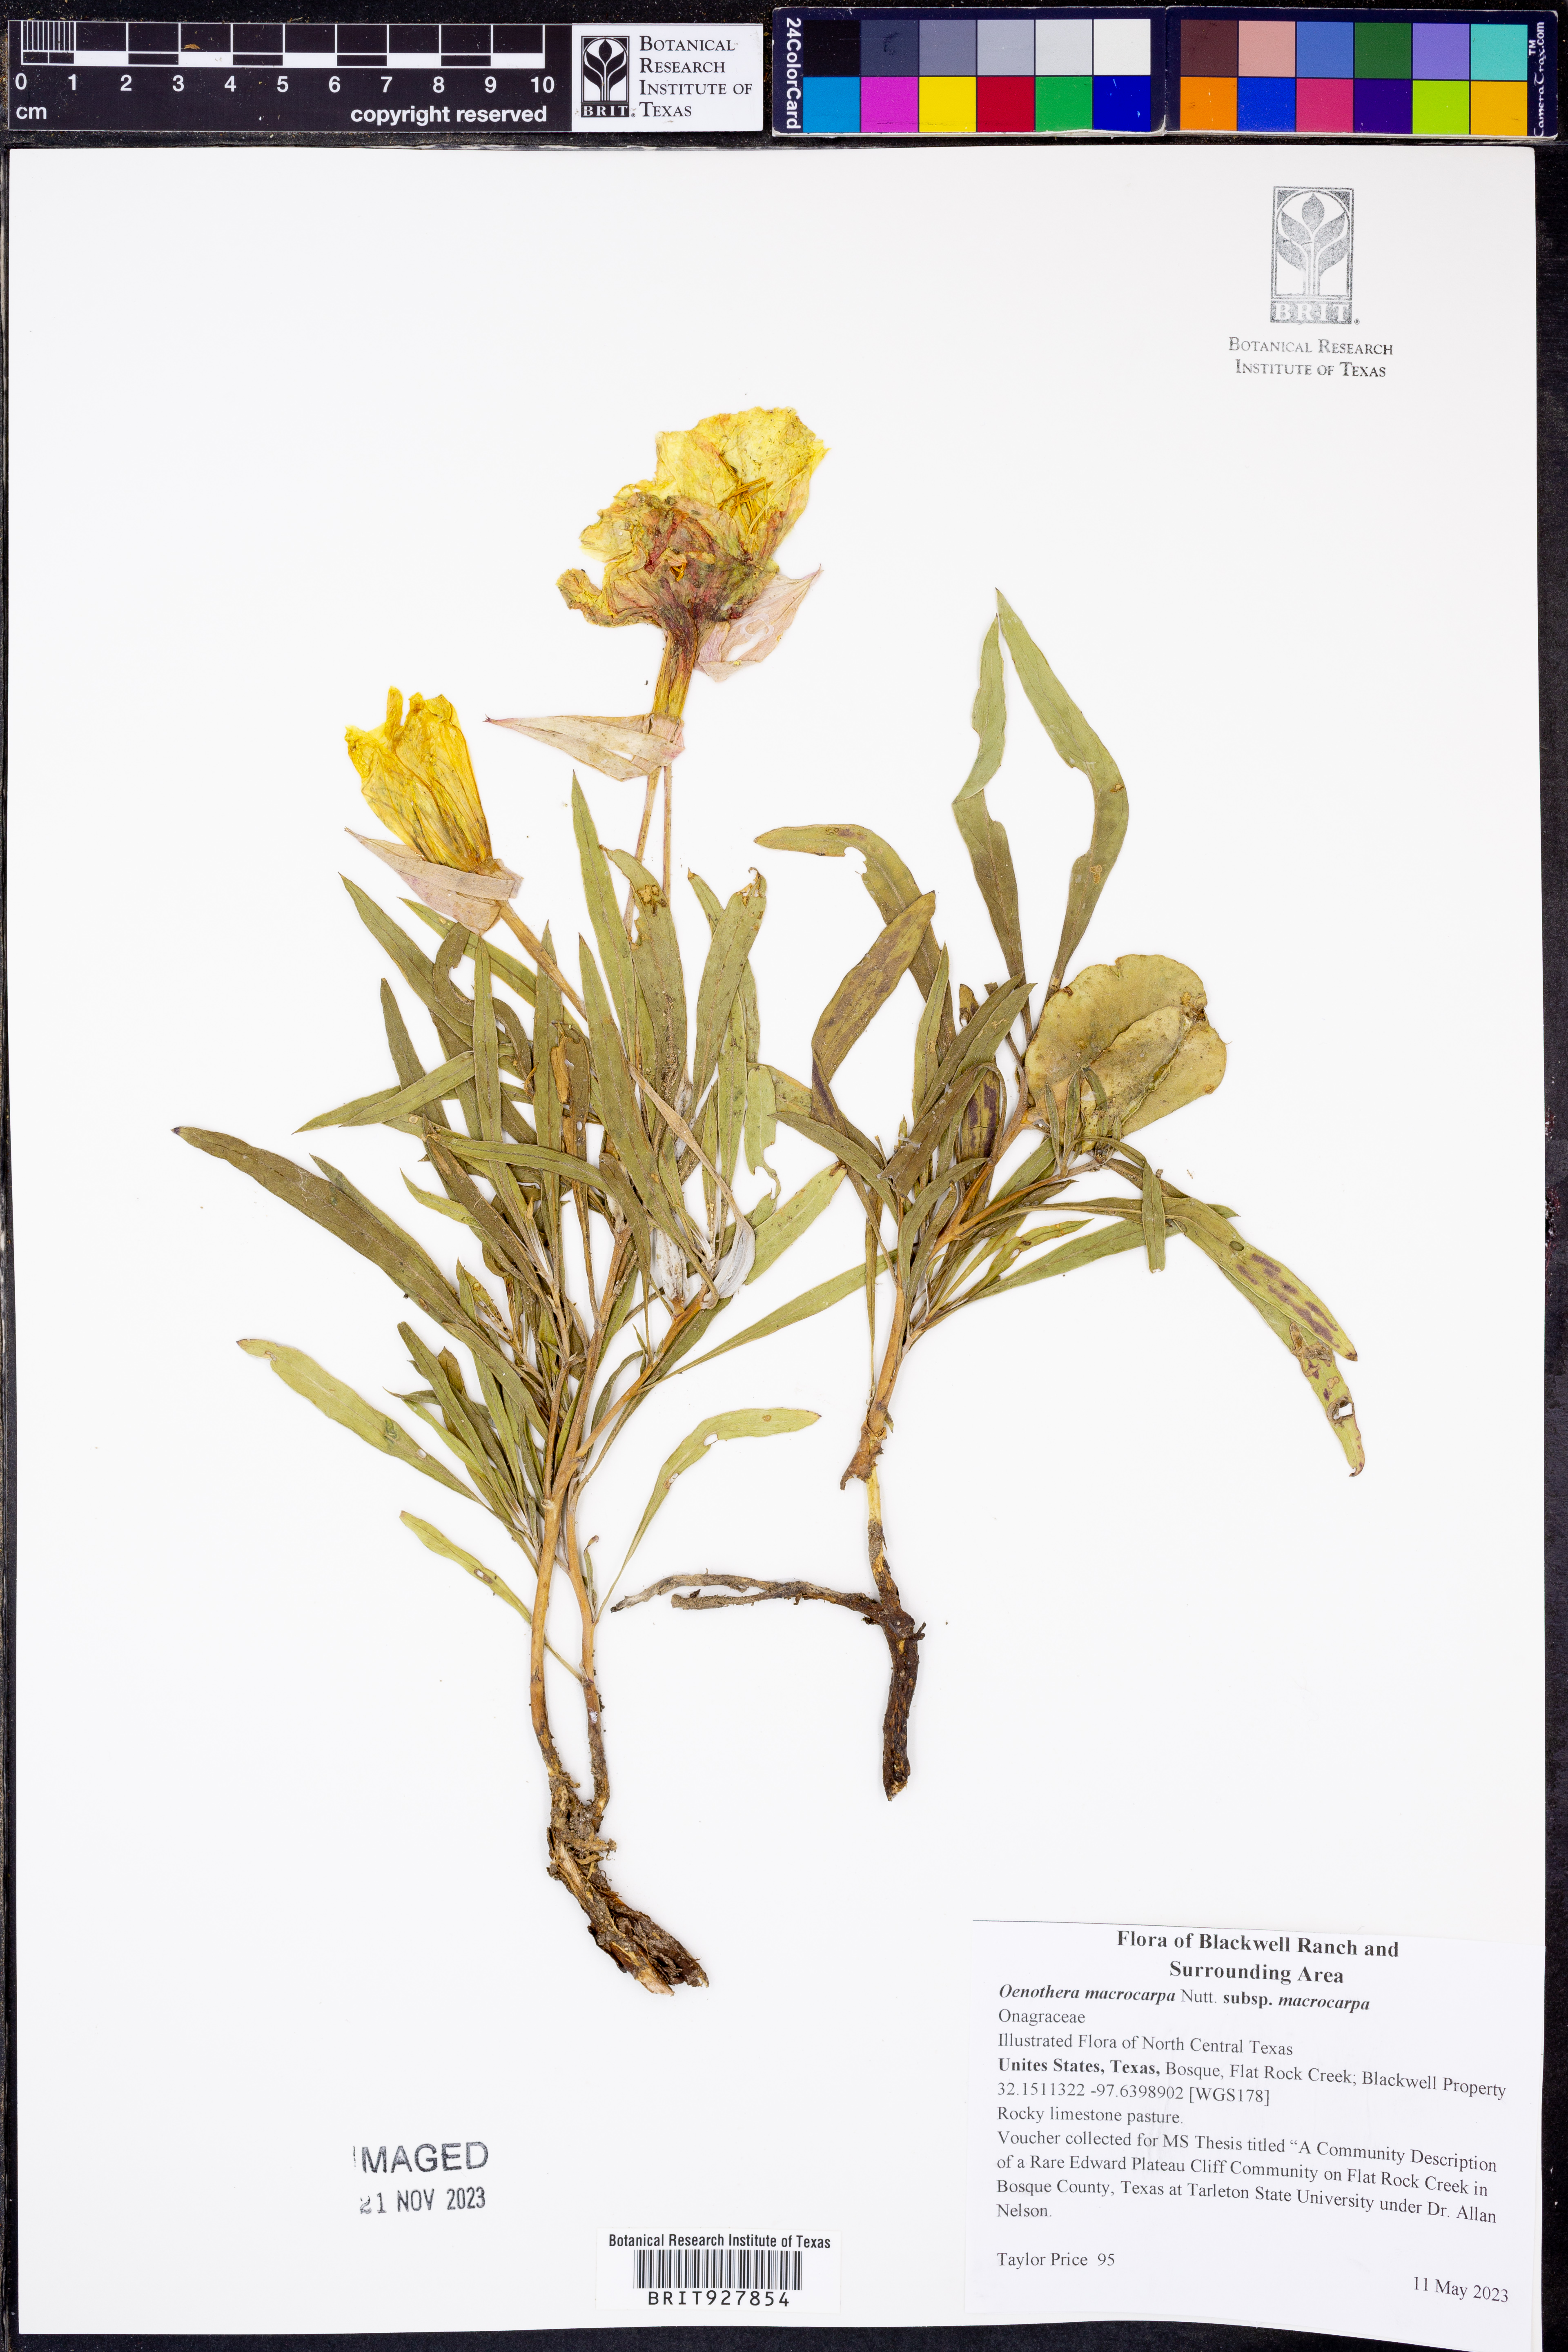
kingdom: Plantae
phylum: Tracheophyta
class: Magnoliopsida
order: Myrtales
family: Onagraceae
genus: Oenothera
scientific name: Oenothera macrocarpa
